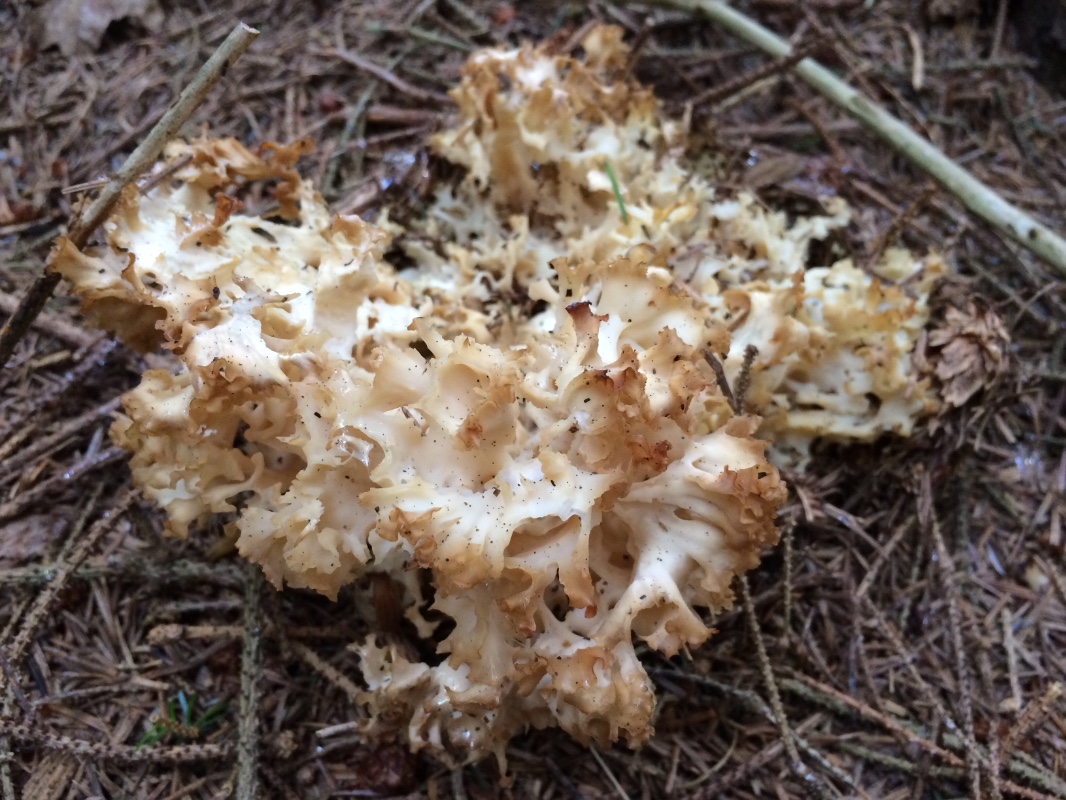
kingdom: Fungi
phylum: Basidiomycota
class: Agaricomycetes
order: Polyporales
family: Sparassidaceae
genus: Sparassis
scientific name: Sparassis crispa
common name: kruset blomkålssvamp
